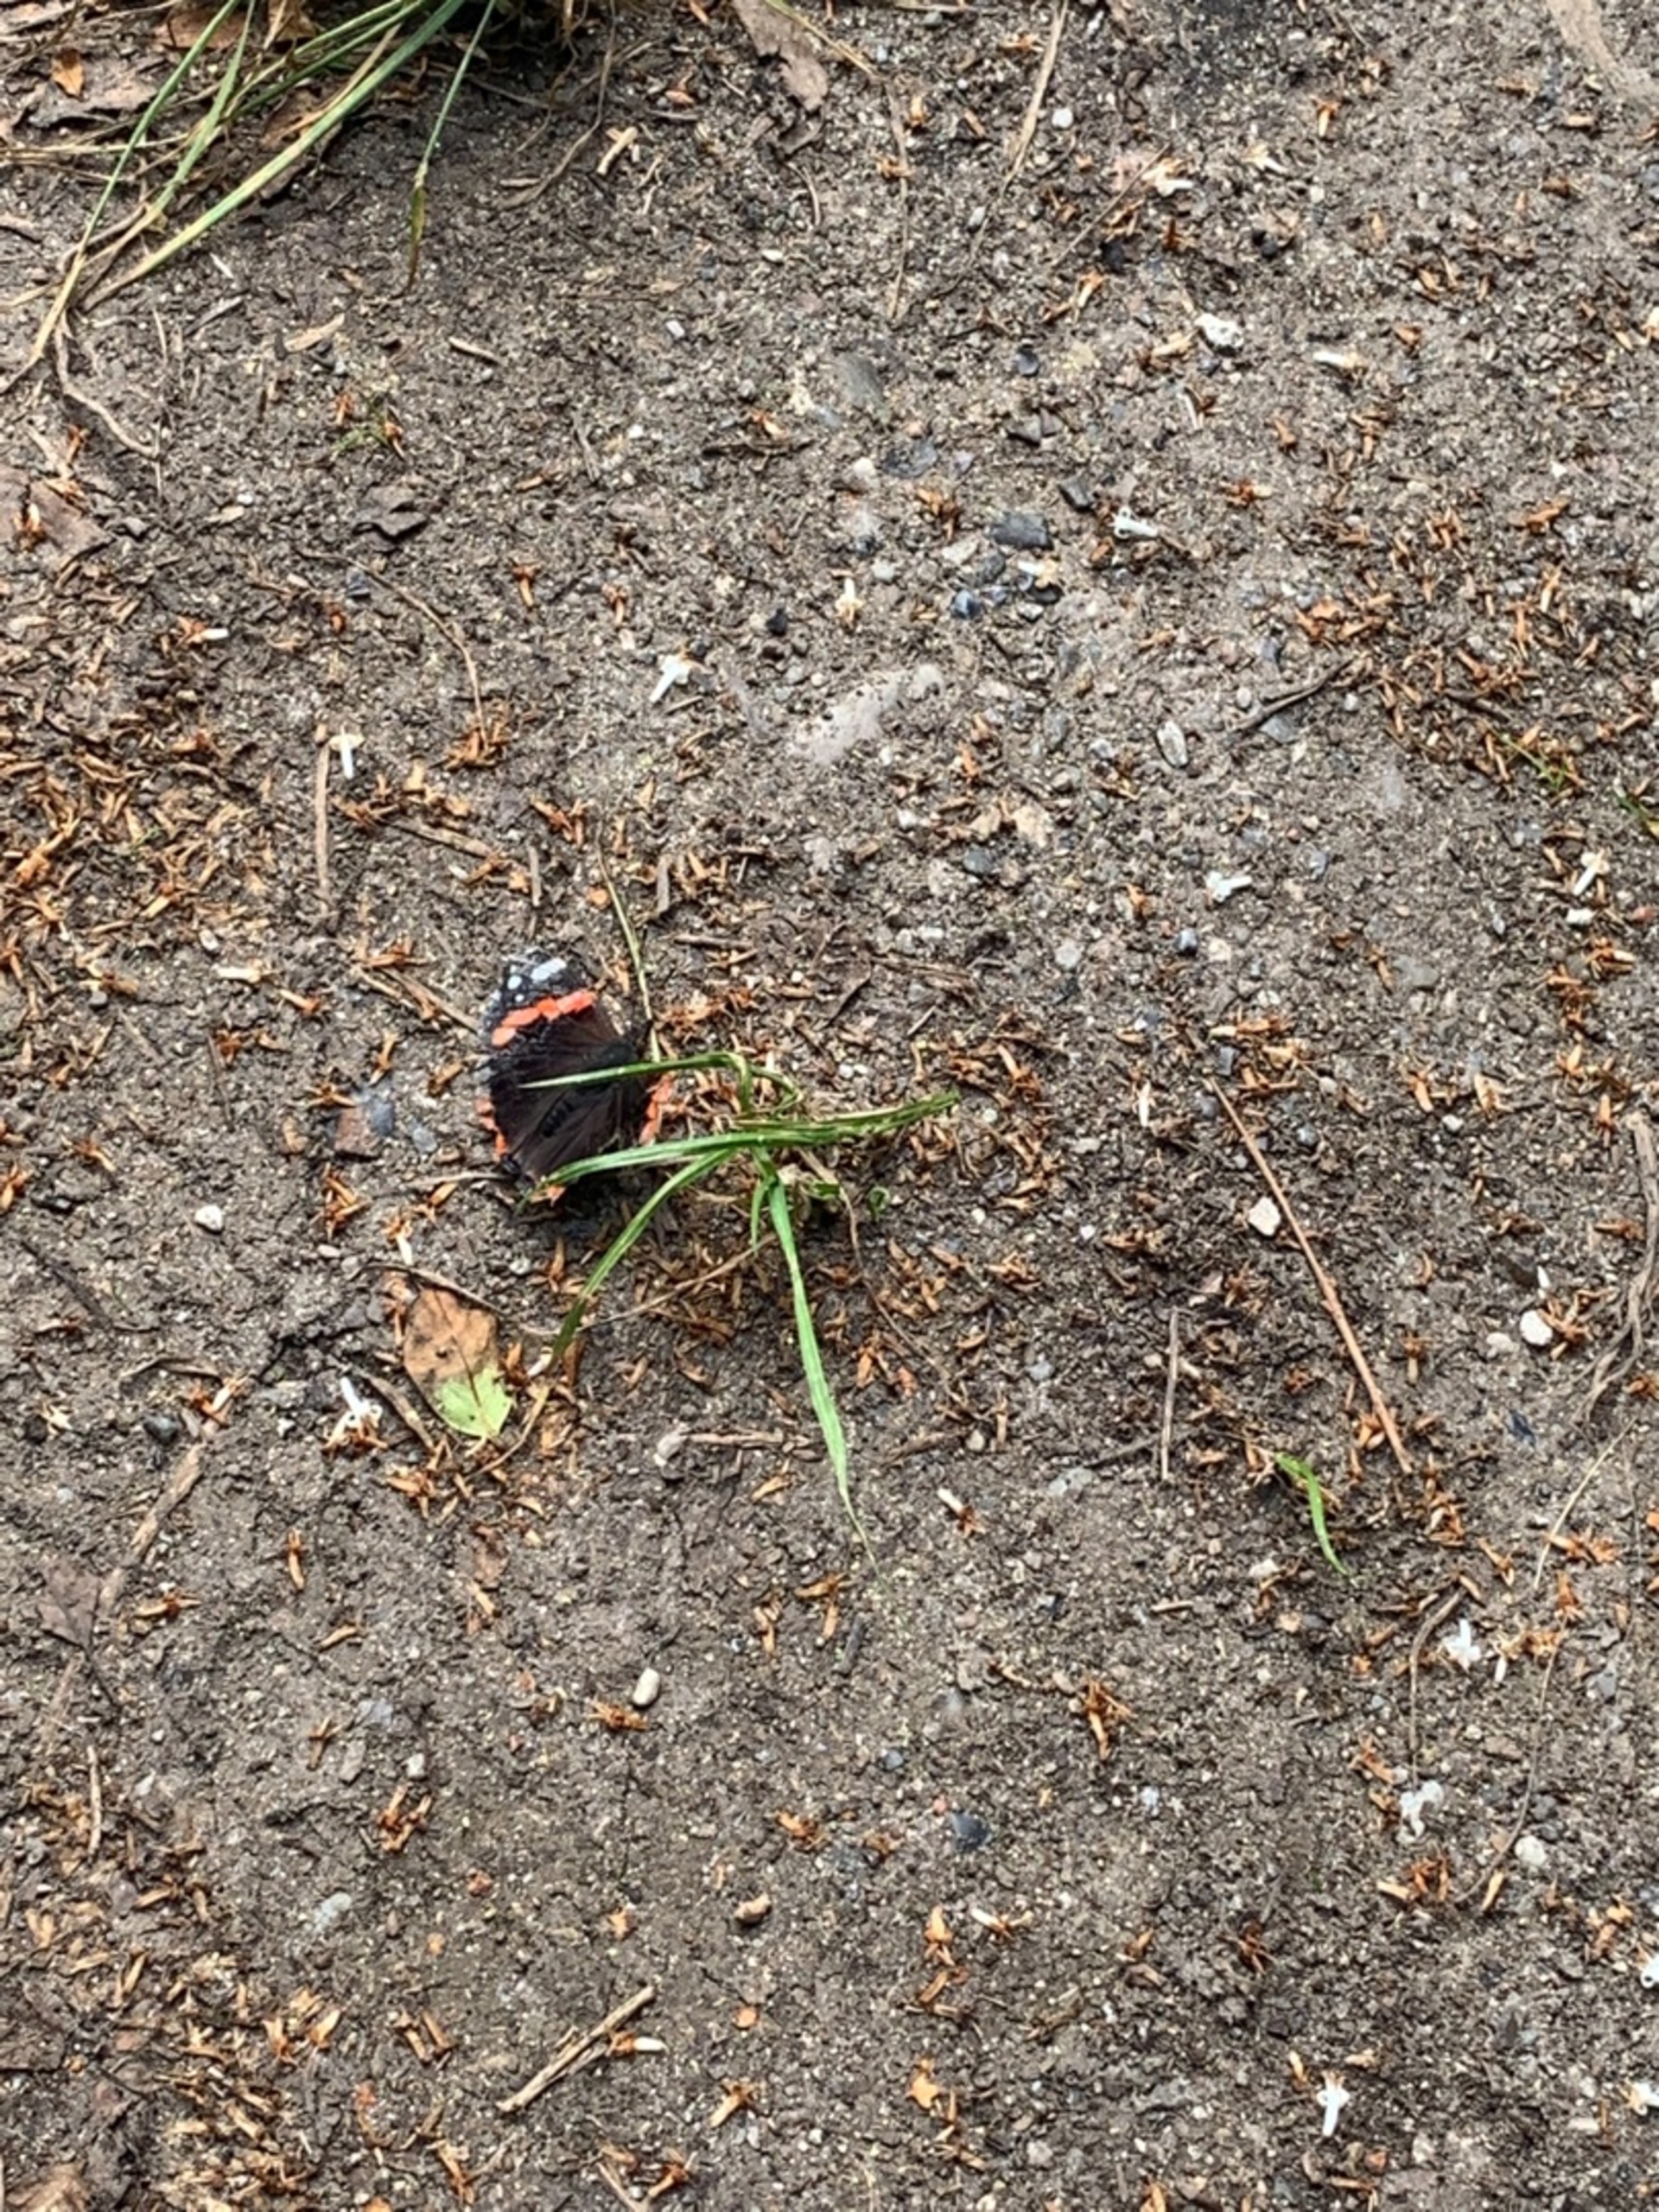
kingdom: Animalia
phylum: Arthropoda
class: Insecta
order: Lepidoptera
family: Nymphalidae
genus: Vanessa
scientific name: Vanessa atalanta
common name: Admiral
